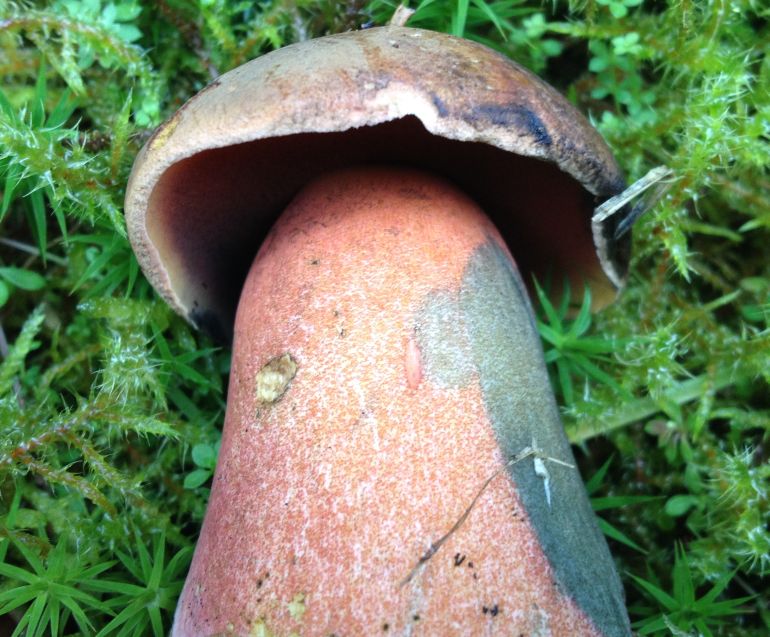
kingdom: Fungi
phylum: Basidiomycota
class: Agaricomycetes
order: Boletales
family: Boletaceae
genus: Neoboletus
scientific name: Neoboletus erythropus
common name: punktstokket indigorørhat
